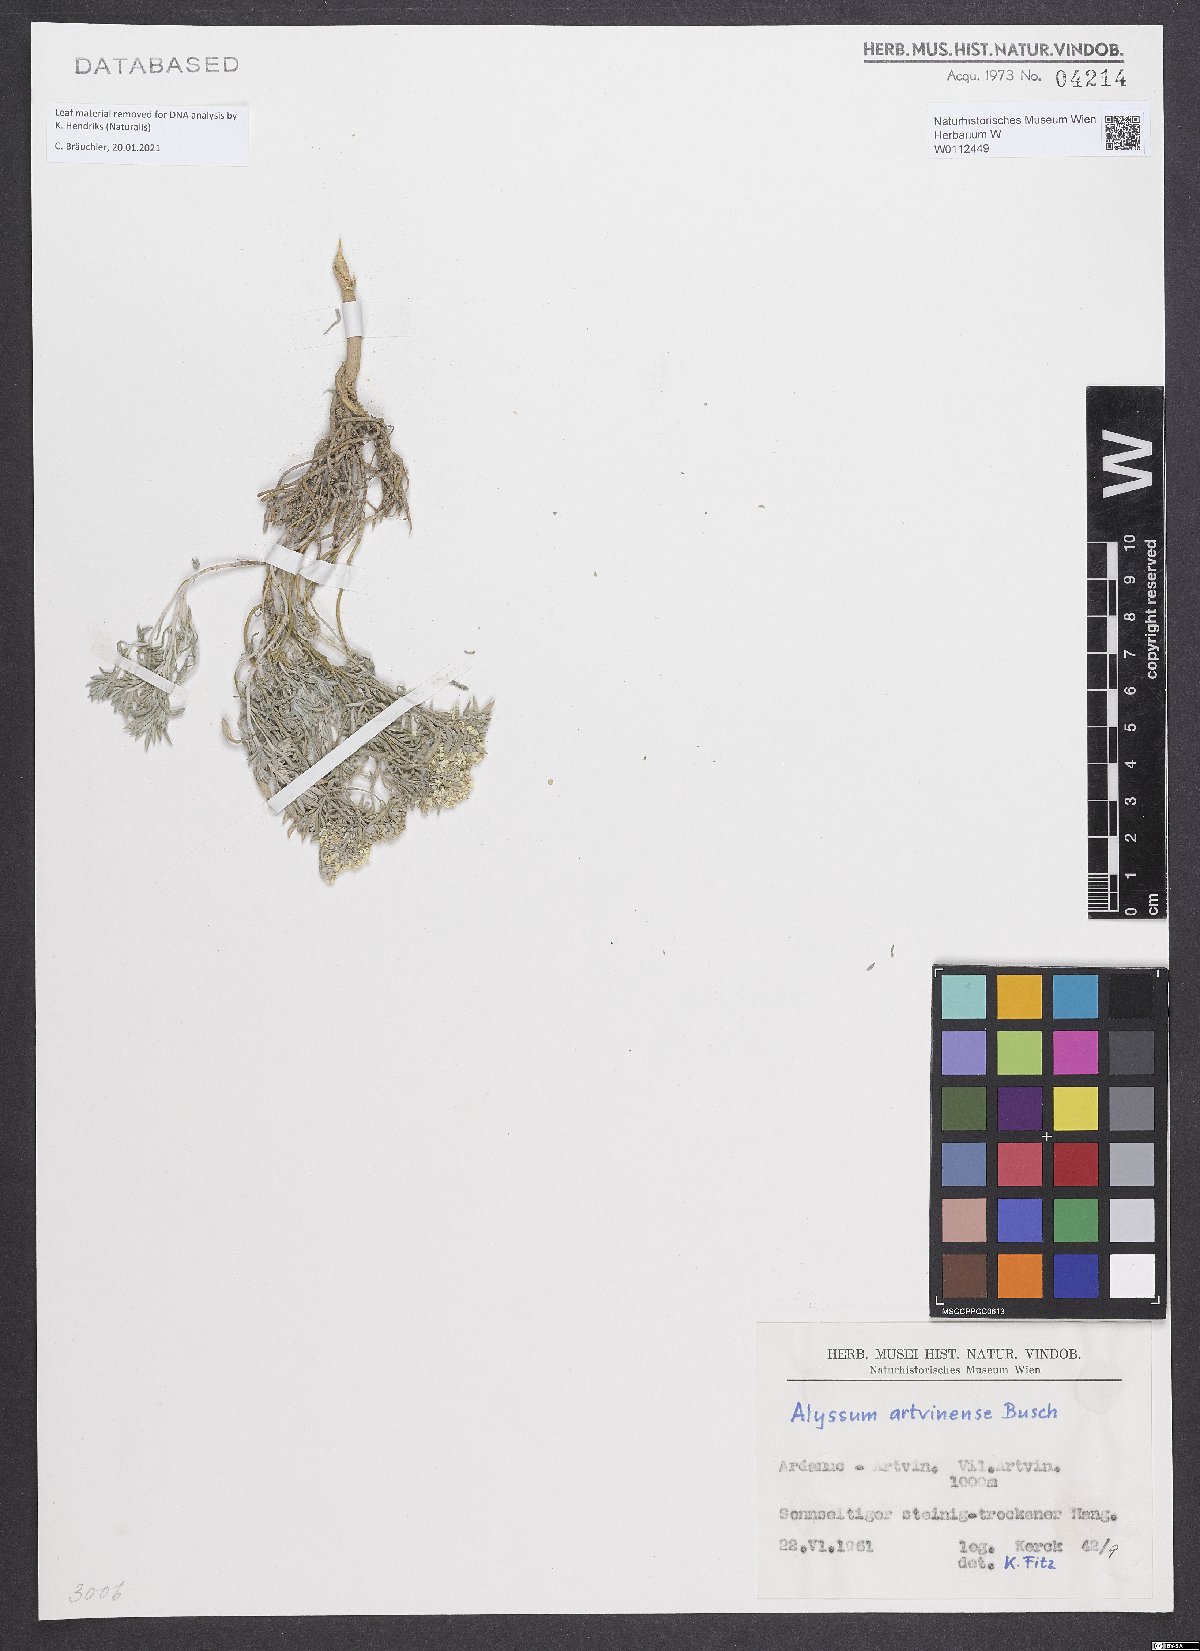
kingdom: Plantae
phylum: Tracheophyta
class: Magnoliopsida
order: Brassicales
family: Brassicaceae
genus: Alyssum
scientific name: Alyssum artwinense
